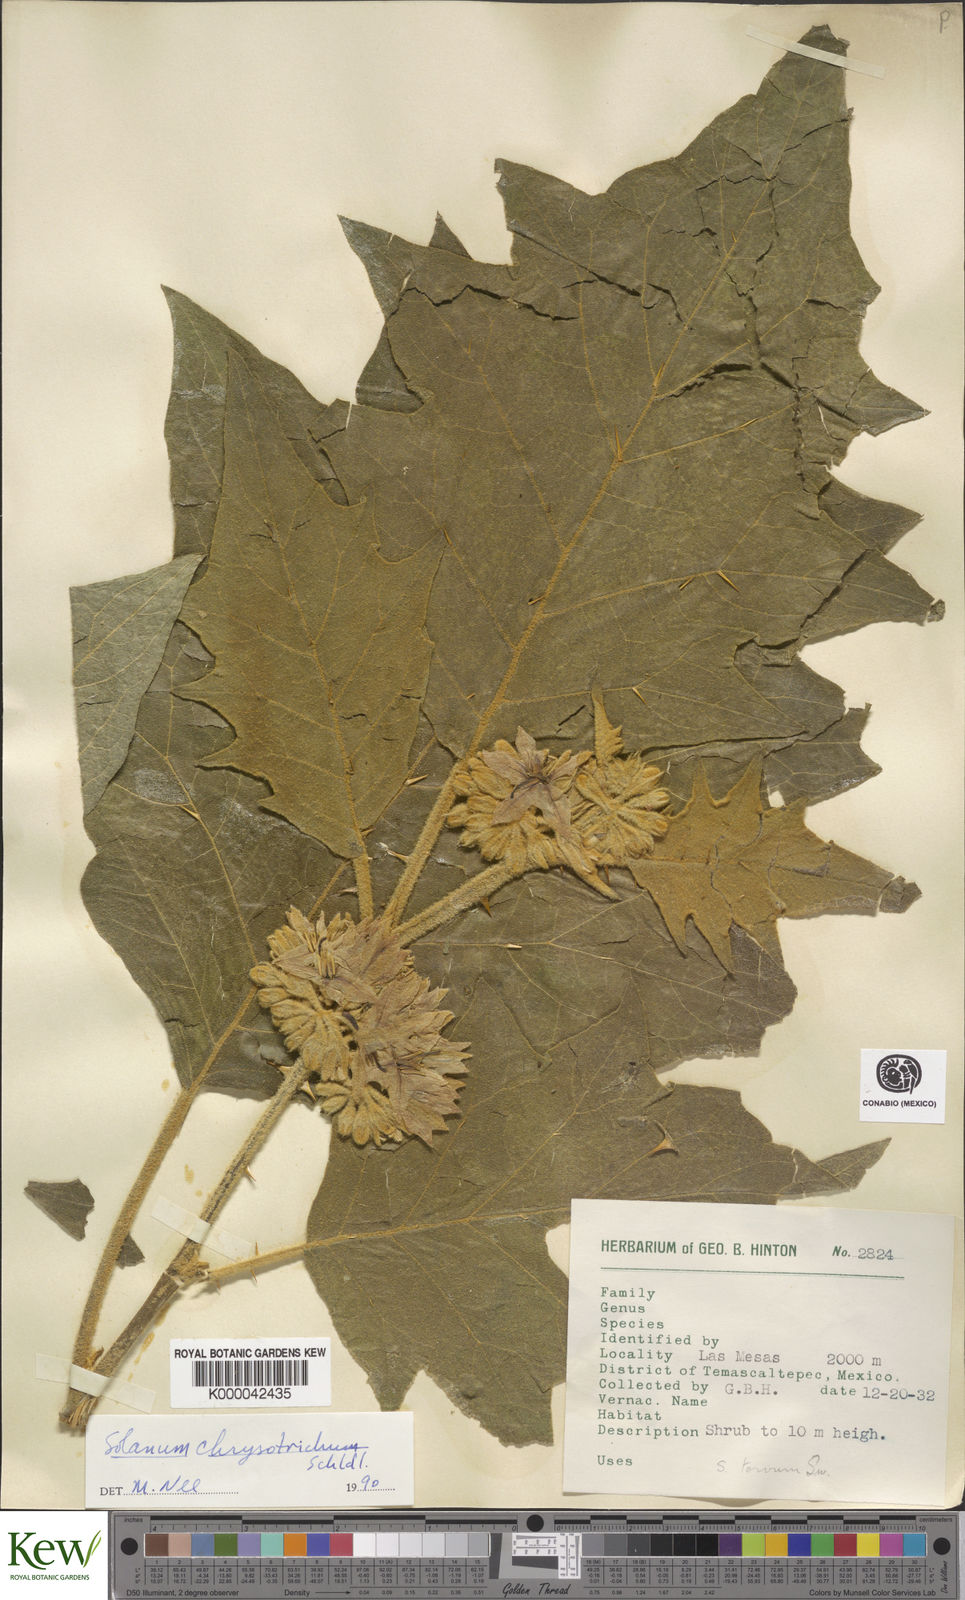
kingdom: Plantae
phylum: Tracheophyta
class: Magnoliopsida
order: Solanales
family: Solanaceae
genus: Solanum
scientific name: Solanum
